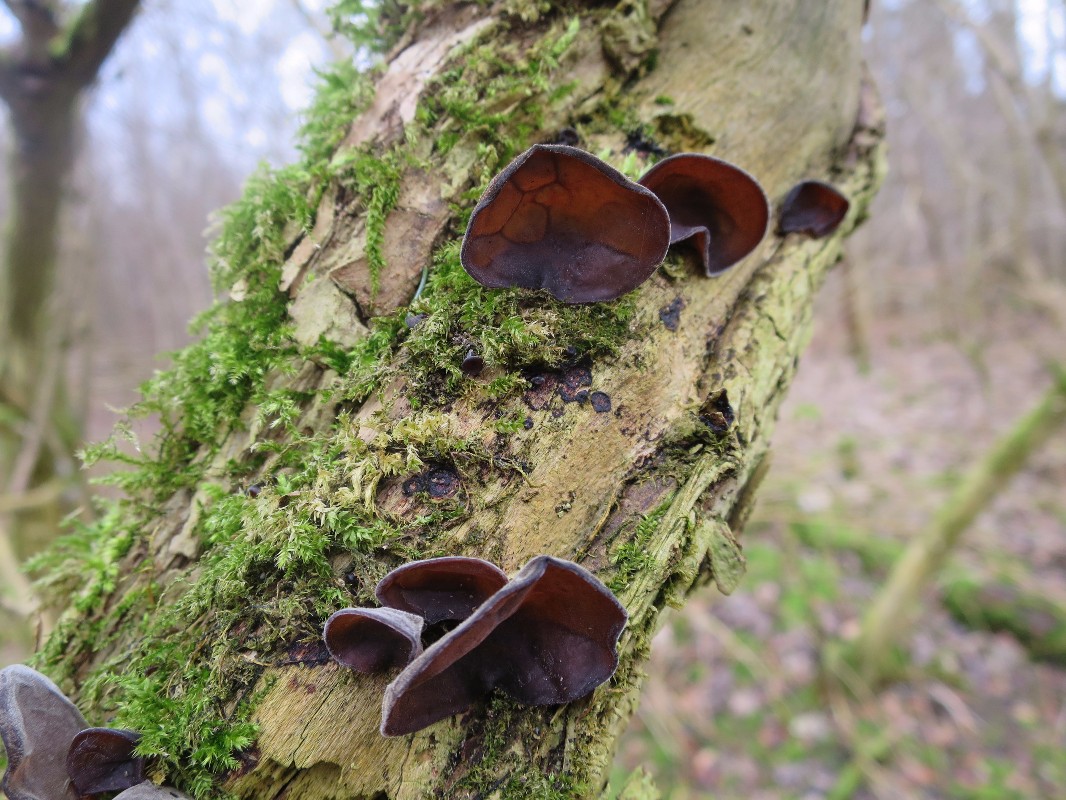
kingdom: Fungi
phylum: Basidiomycota
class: Agaricomycetes
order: Auriculariales
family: Auriculariaceae
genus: Auricularia
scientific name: Auricularia auricula-judae
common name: almindelig judasøre
